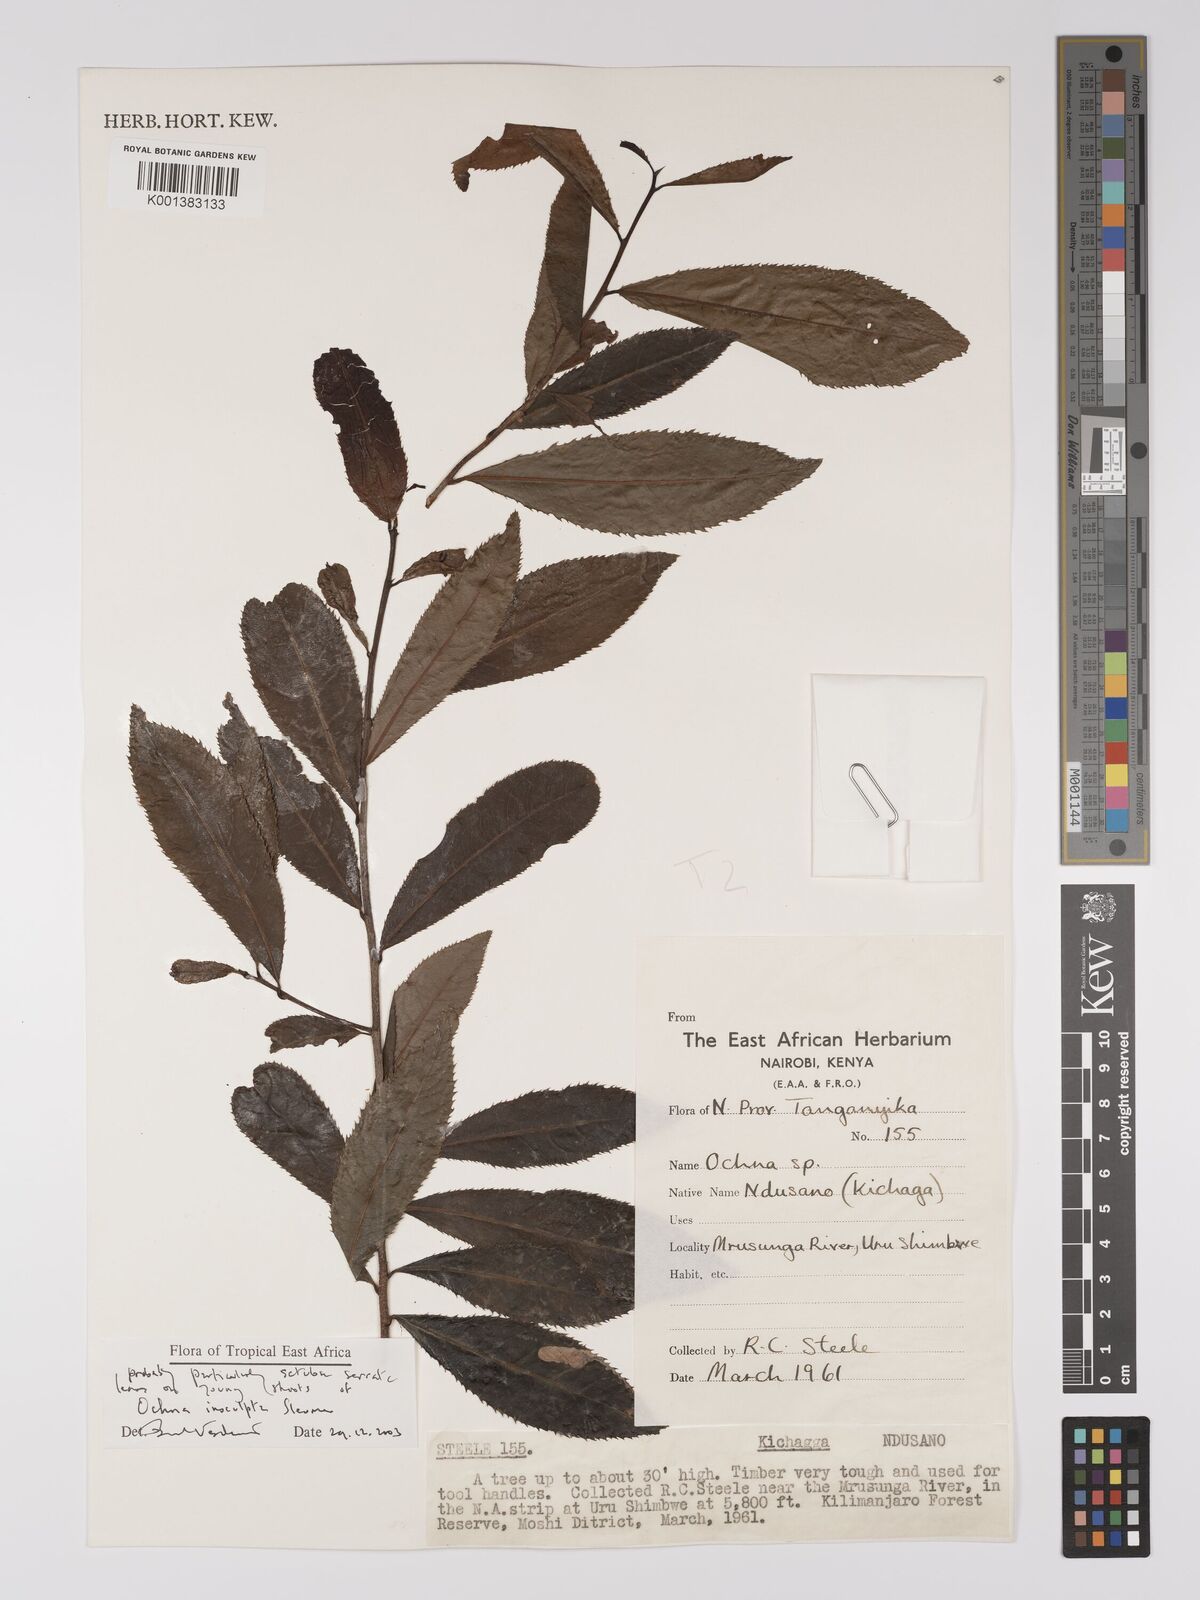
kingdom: Plantae
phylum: Tracheophyta
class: Magnoliopsida
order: Malpighiales
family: Ochnaceae
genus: Ochna
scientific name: Ochna insculpta
